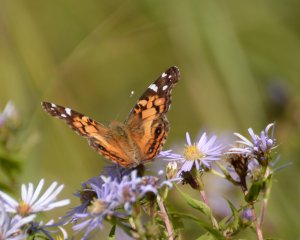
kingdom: Animalia
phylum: Arthropoda
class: Insecta
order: Lepidoptera
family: Nymphalidae
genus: Vanessa
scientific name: Vanessa virginiensis
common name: American Lady
